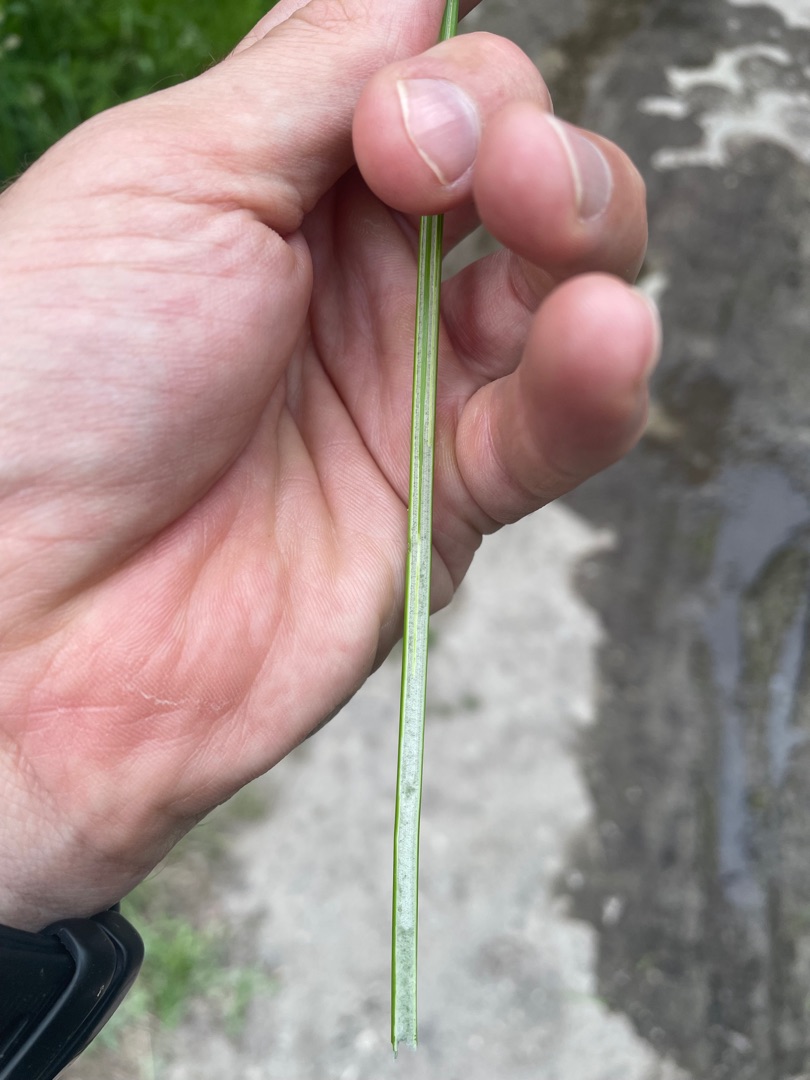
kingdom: Plantae
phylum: Tracheophyta
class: Liliopsida
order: Poales
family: Juncaceae
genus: Juncus
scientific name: Juncus effusus
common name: Lyse-siv
